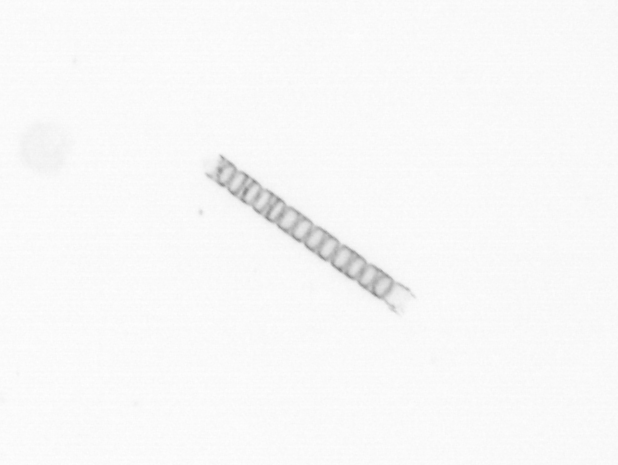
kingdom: Chromista
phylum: Ochrophyta
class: Bacillariophyceae
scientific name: Bacillariophyceae
